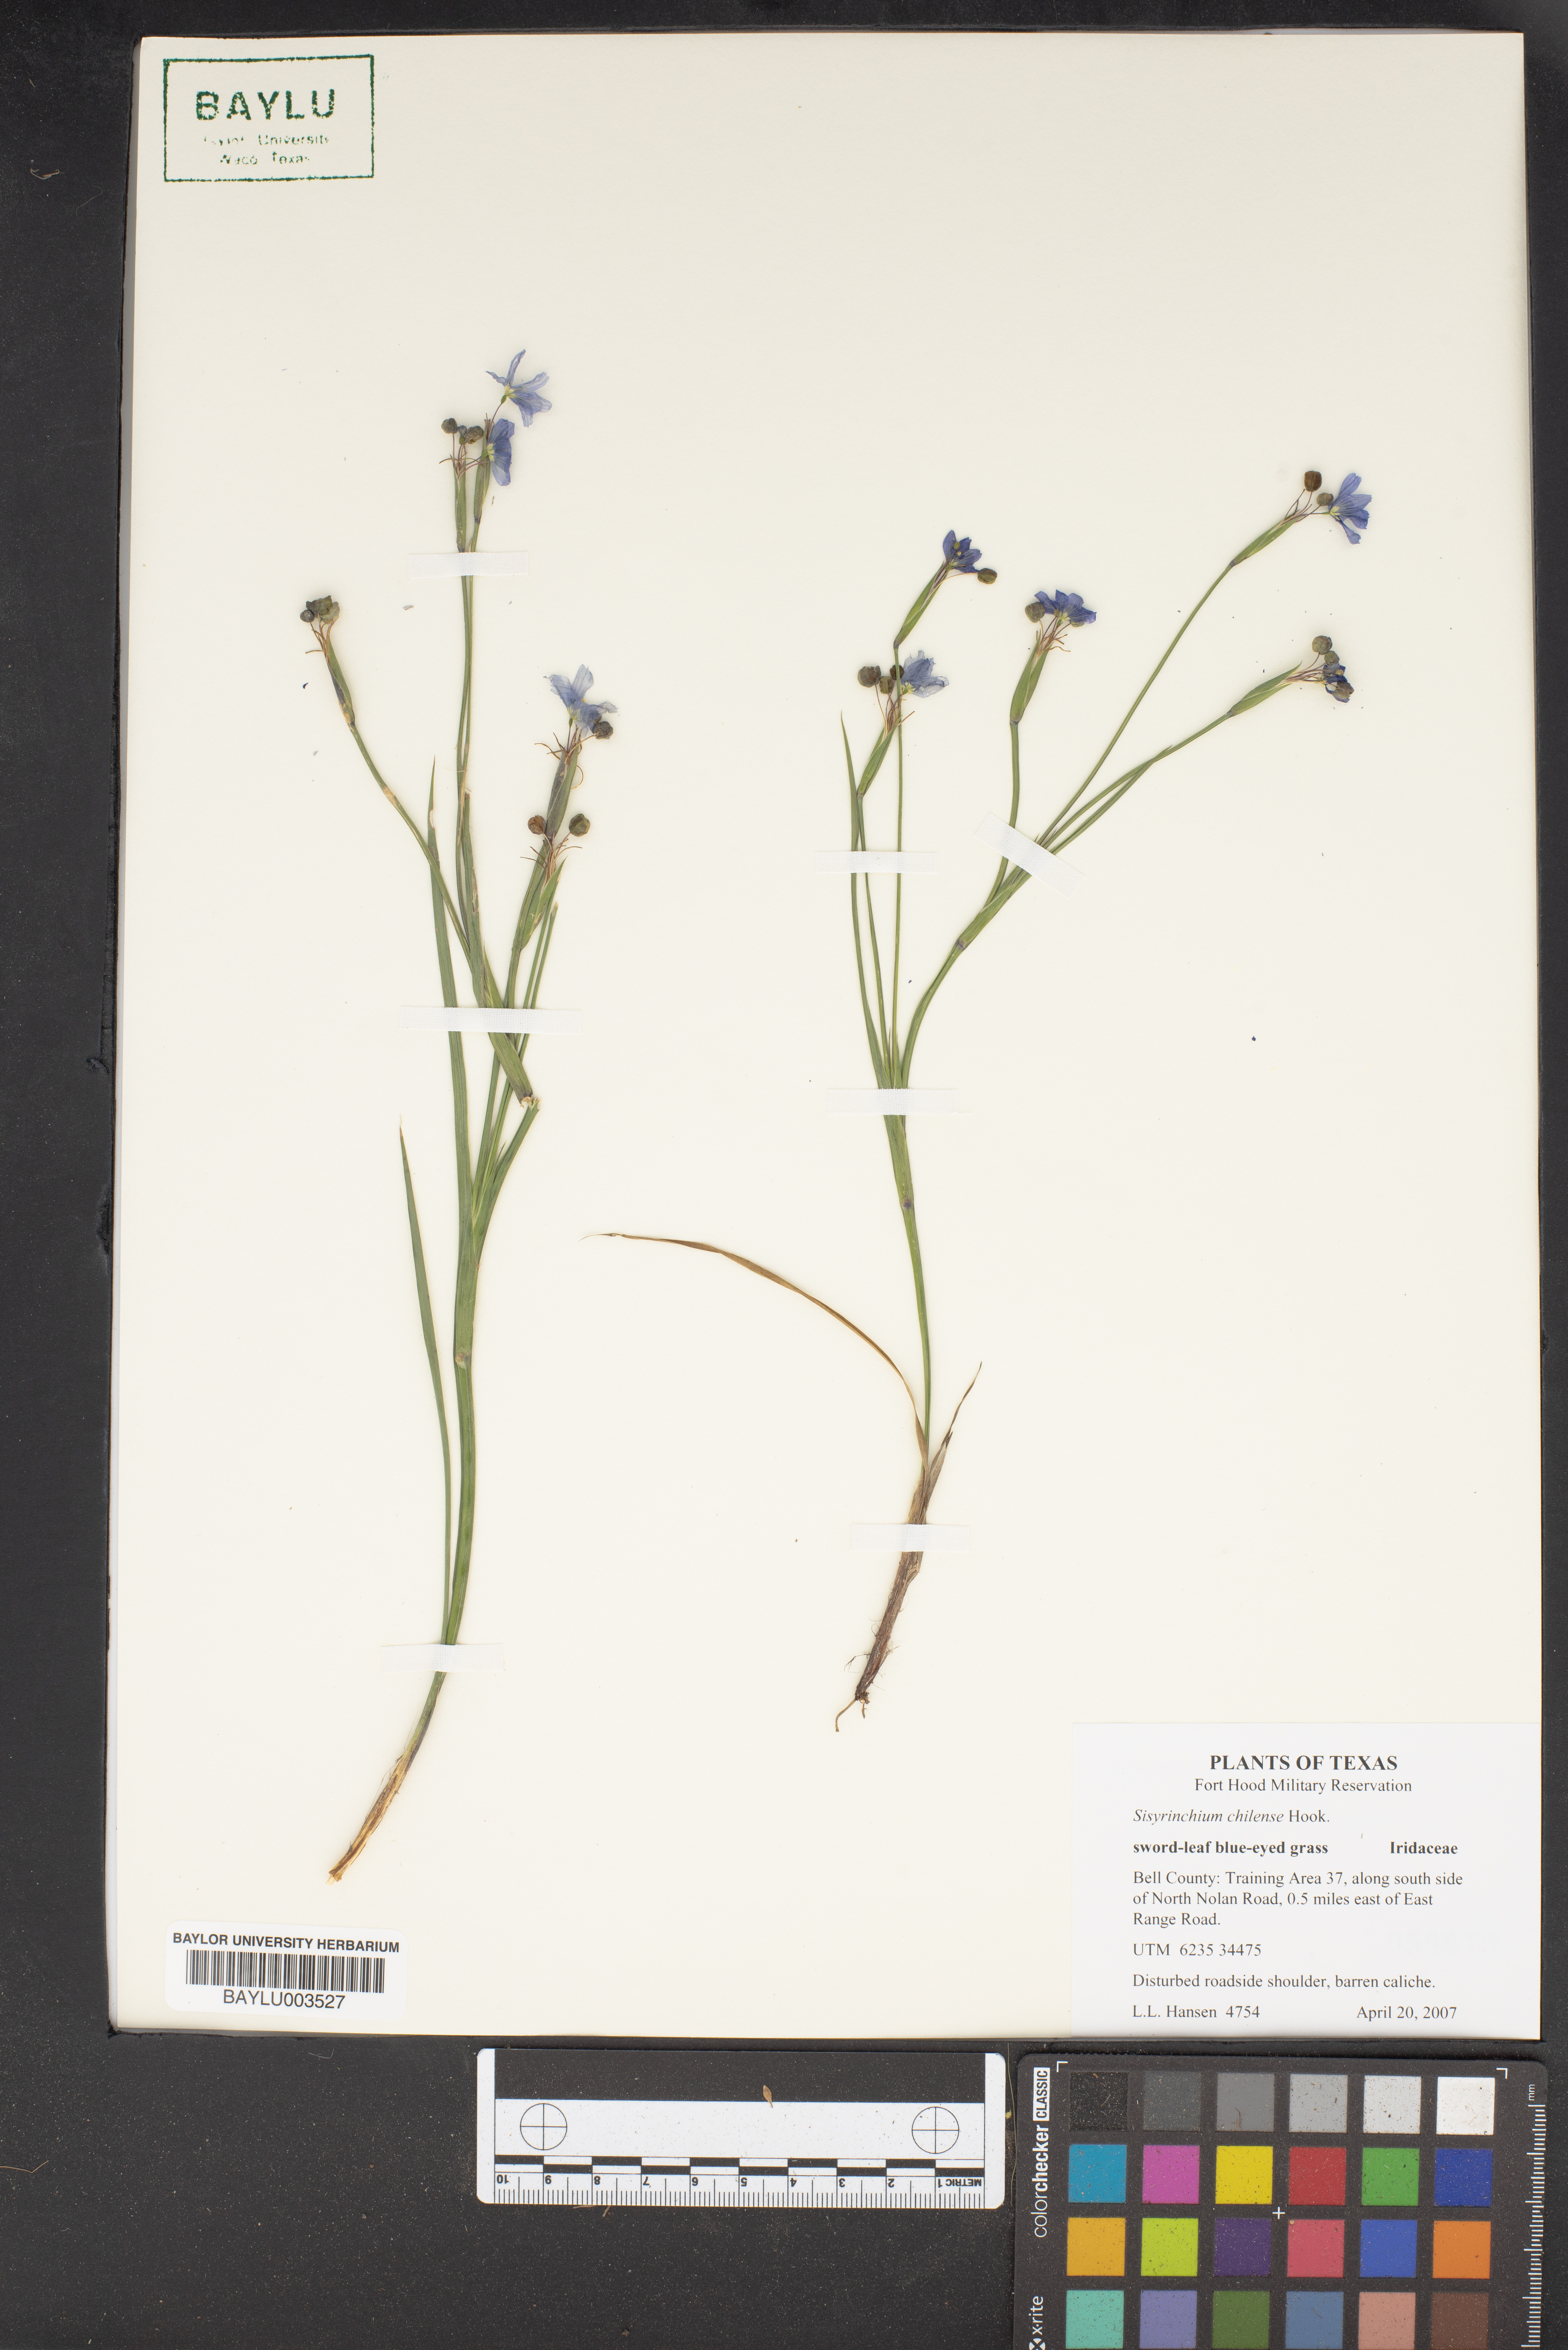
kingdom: Plantae
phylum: Tracheophyta
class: Liliopsida
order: Asparagales
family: Iridaceae
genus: Sisyrinchium
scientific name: Sisyrinchium chilense
